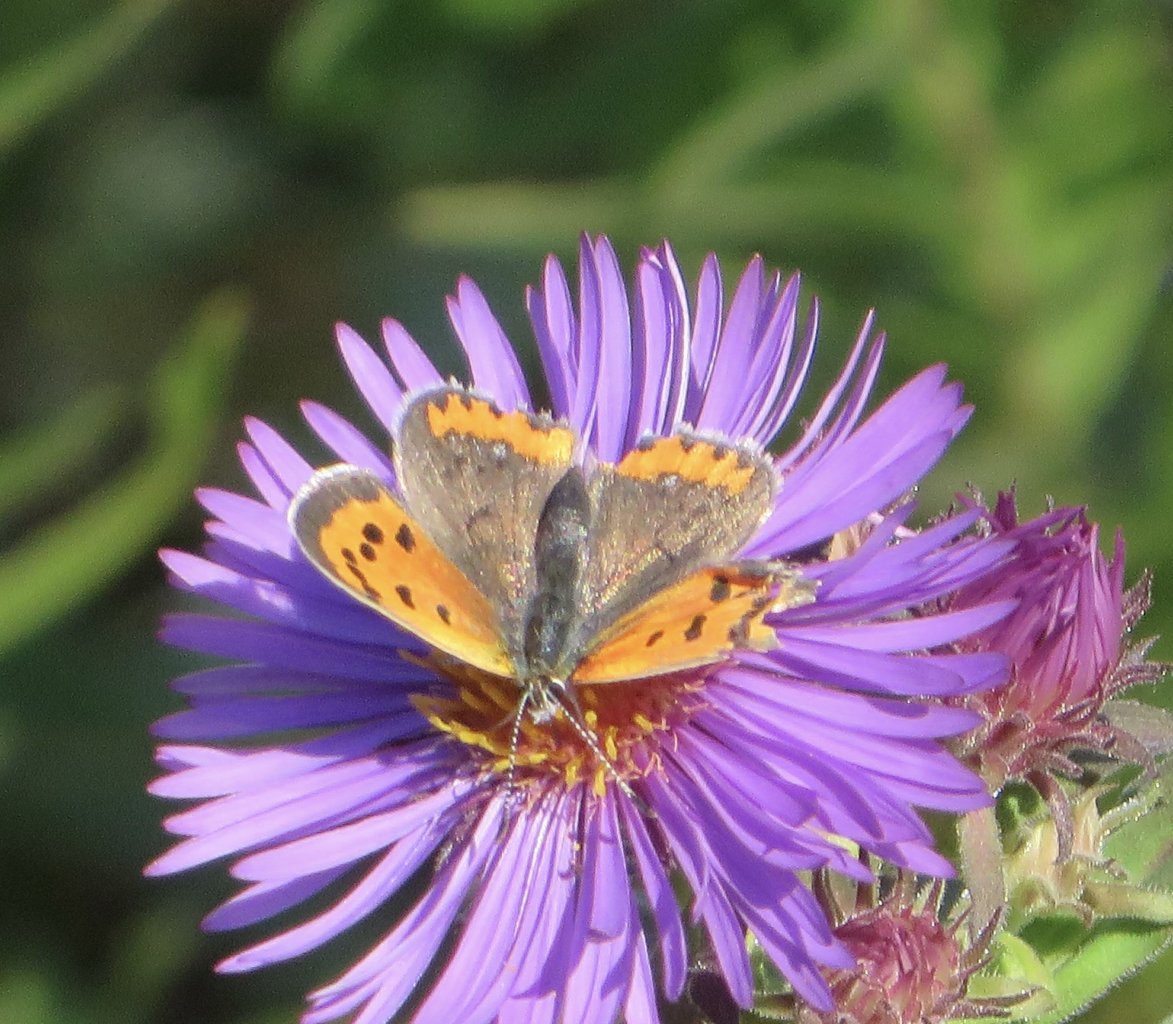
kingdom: Animalia
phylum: Arthropoda
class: Insecta
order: Lepidoptera
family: Lycaenidae
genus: Lycaena
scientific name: Lycaena phlaeas
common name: American Copper
